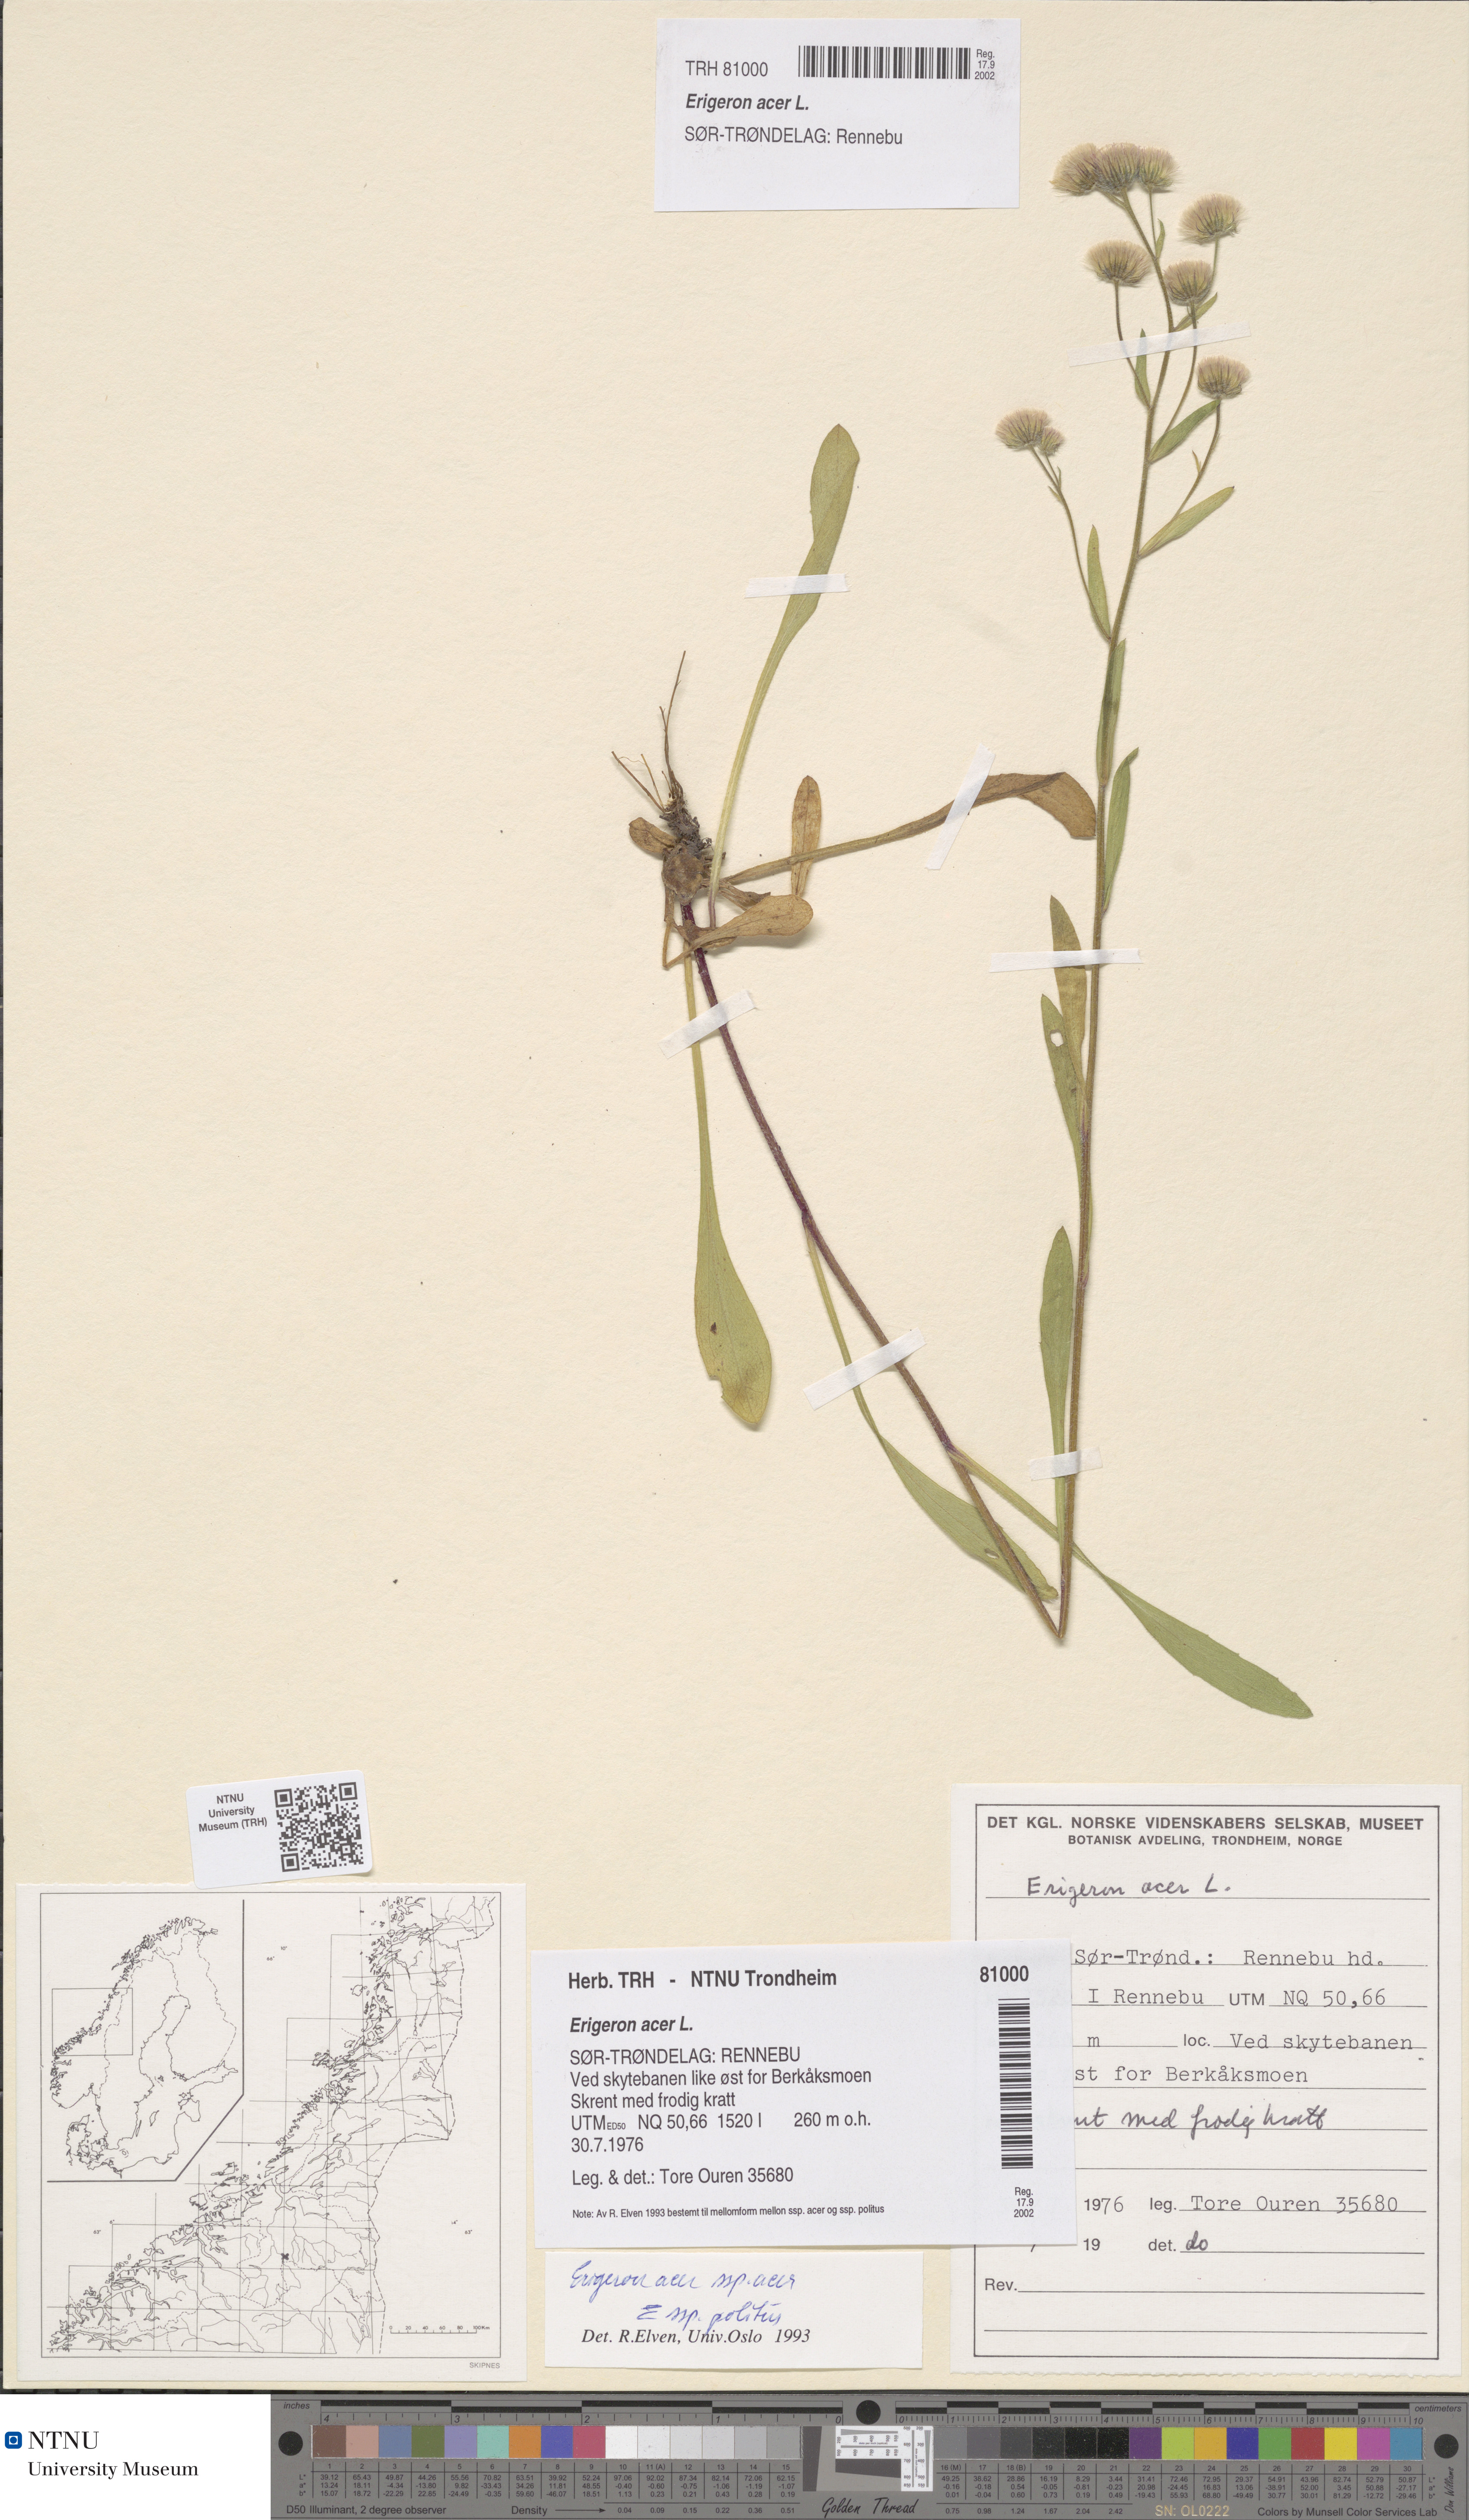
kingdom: Plantae
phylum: Tracheophyta
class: Magnoliopsida
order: Asterales
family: Asteraceae
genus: Erigeron
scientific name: Erigeron acris
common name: Blue fleabane
